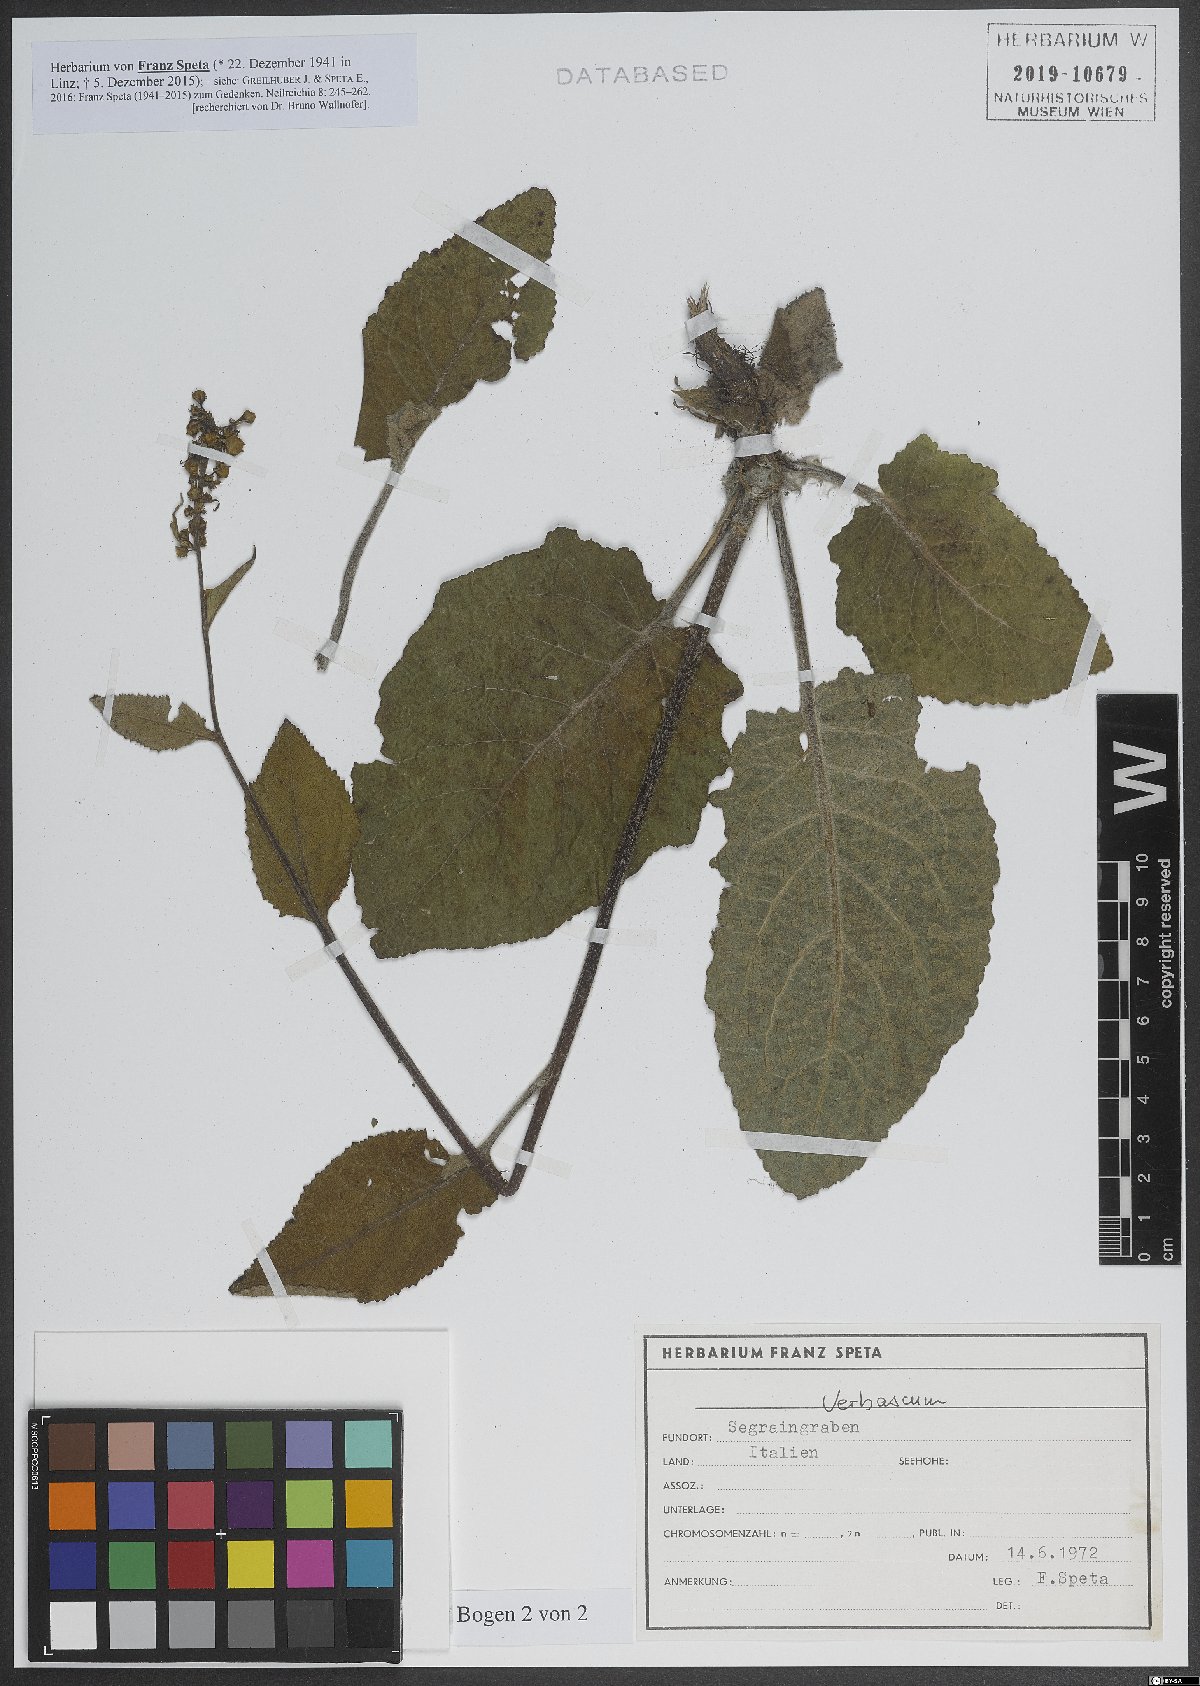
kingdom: Plantae
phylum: Tracheophyta
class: Magnoliopsida
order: Lamiales
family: Scrophulariaceae
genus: Verbascum
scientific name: Verbascum
